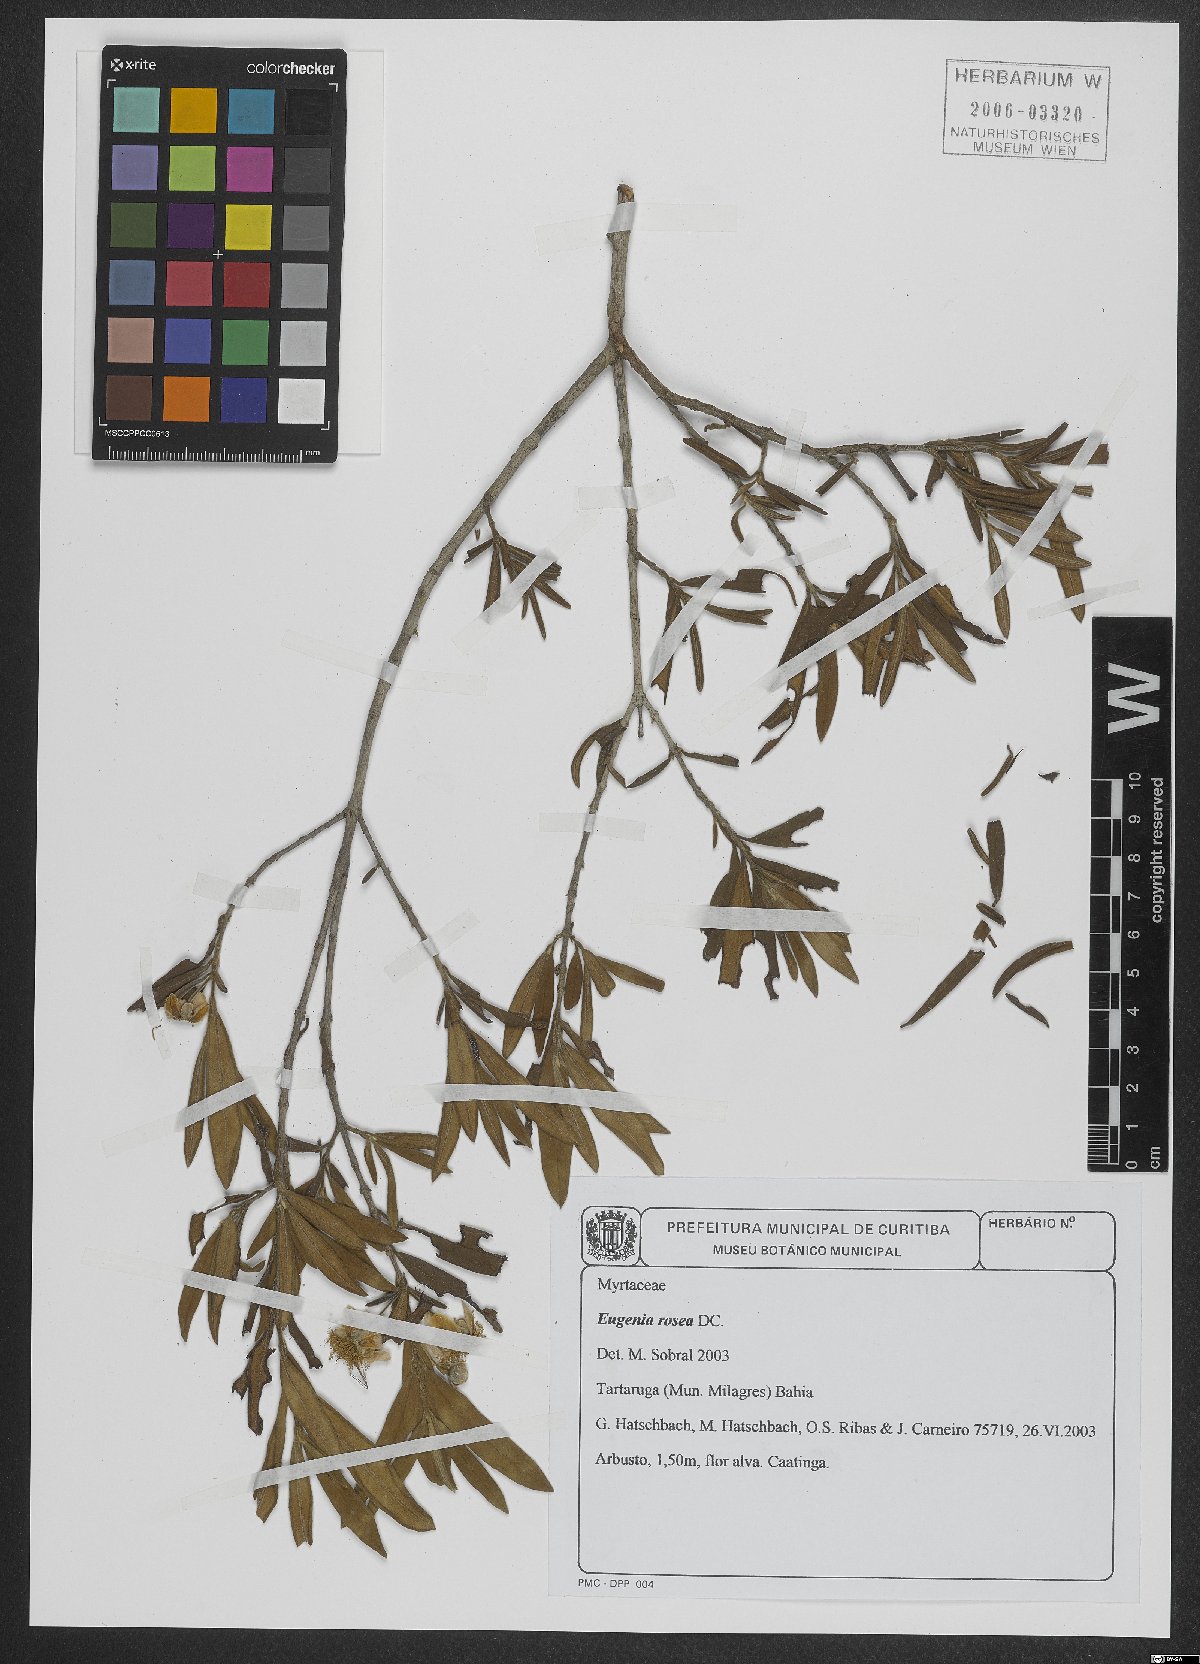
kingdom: Plantae
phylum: Tracheophyta
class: Magnoliopsida
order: Myrtales
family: Myrtaceae
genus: Eugenia
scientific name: Eugenia rosea
